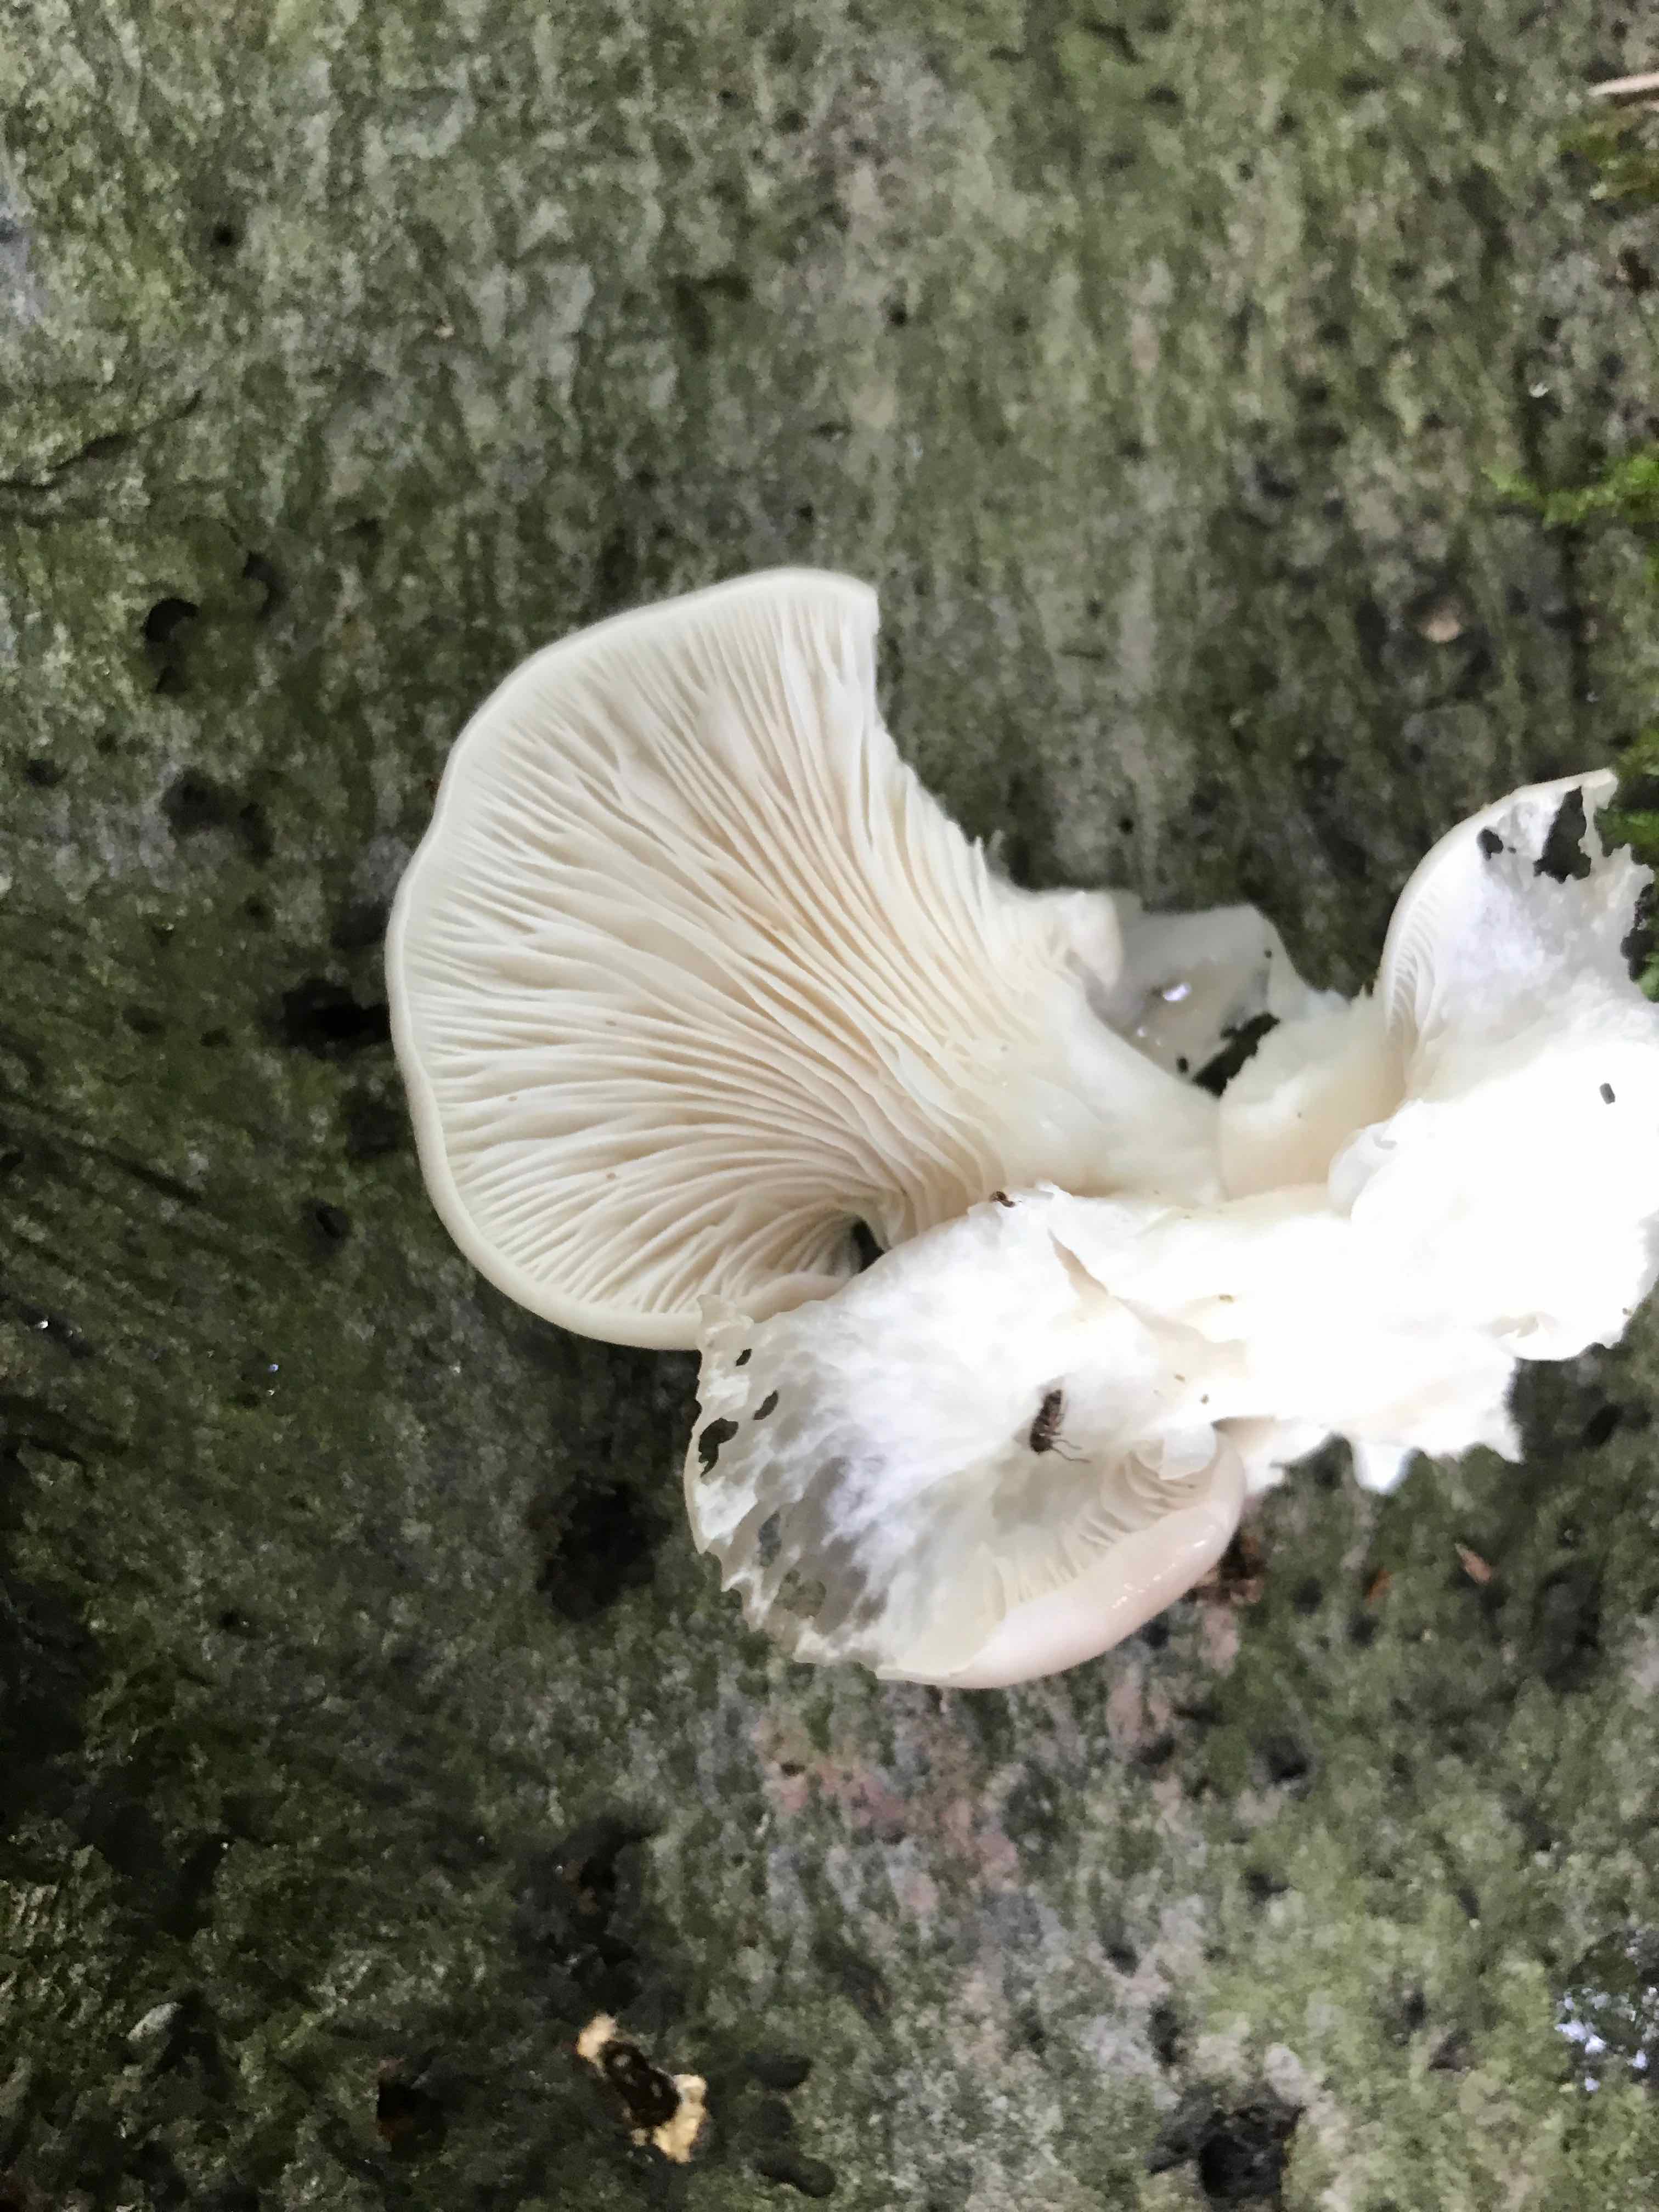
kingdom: Fungi
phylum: Basidiomycota
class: Agaricomycetes
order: Agaricales
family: Pleurotaceae
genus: Pleurotus
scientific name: Pleurotus pulmonarius
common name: sommer-østershat
